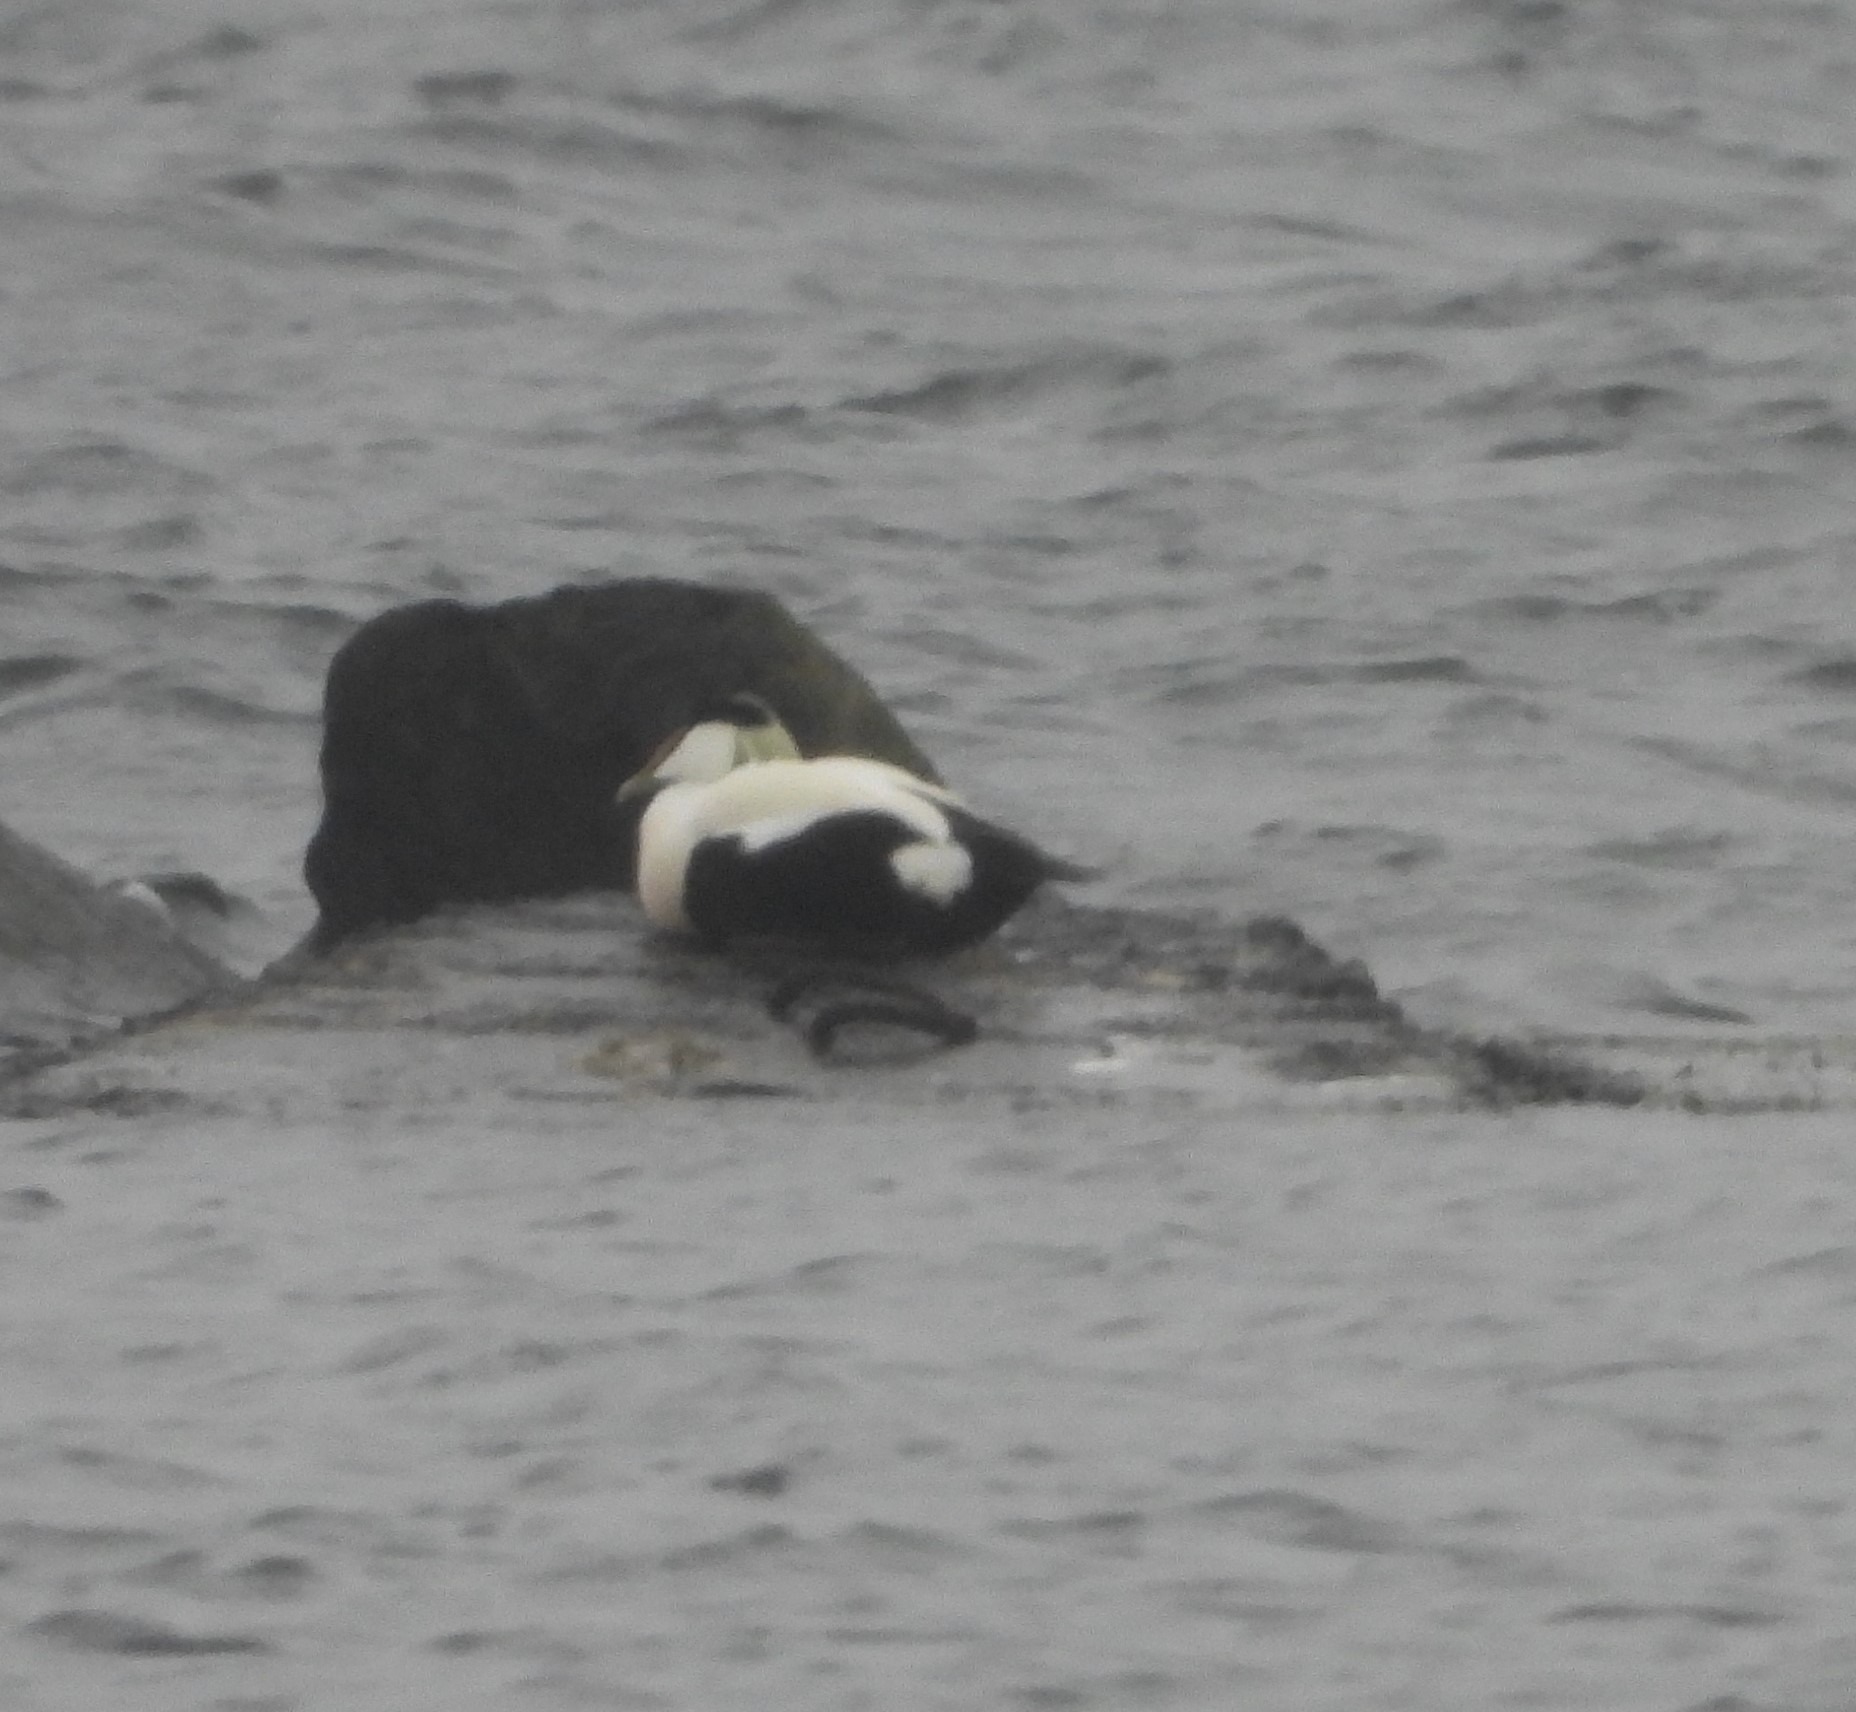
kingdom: Animalia
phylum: Chordata
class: Aves
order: Anseriformes
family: Anatidae
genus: Somateria
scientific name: Somateria mollissima
